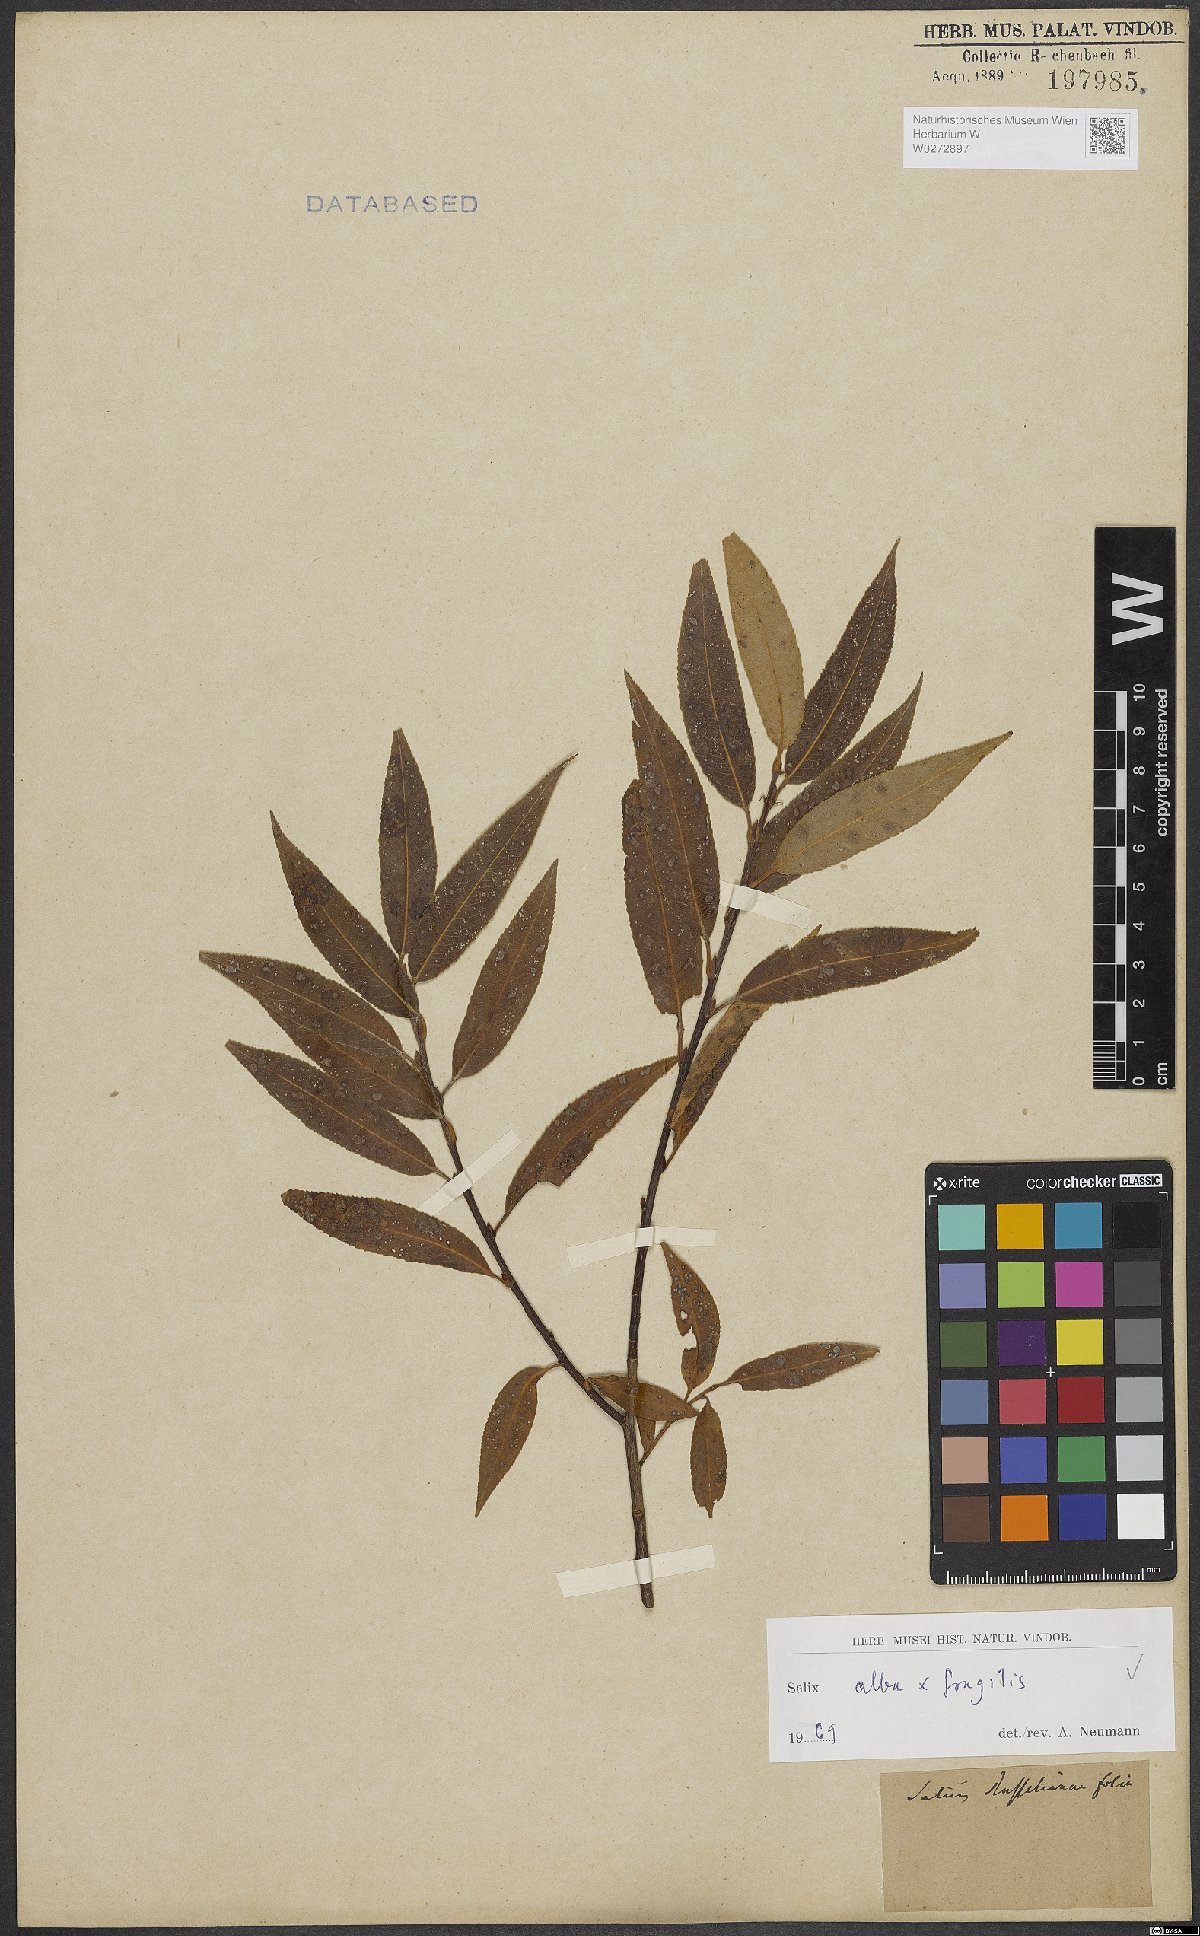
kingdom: Plantae
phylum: Tracheophyta
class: Magnoliopsida
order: Malpighiales
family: Salicaceae
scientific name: Salicaceae
